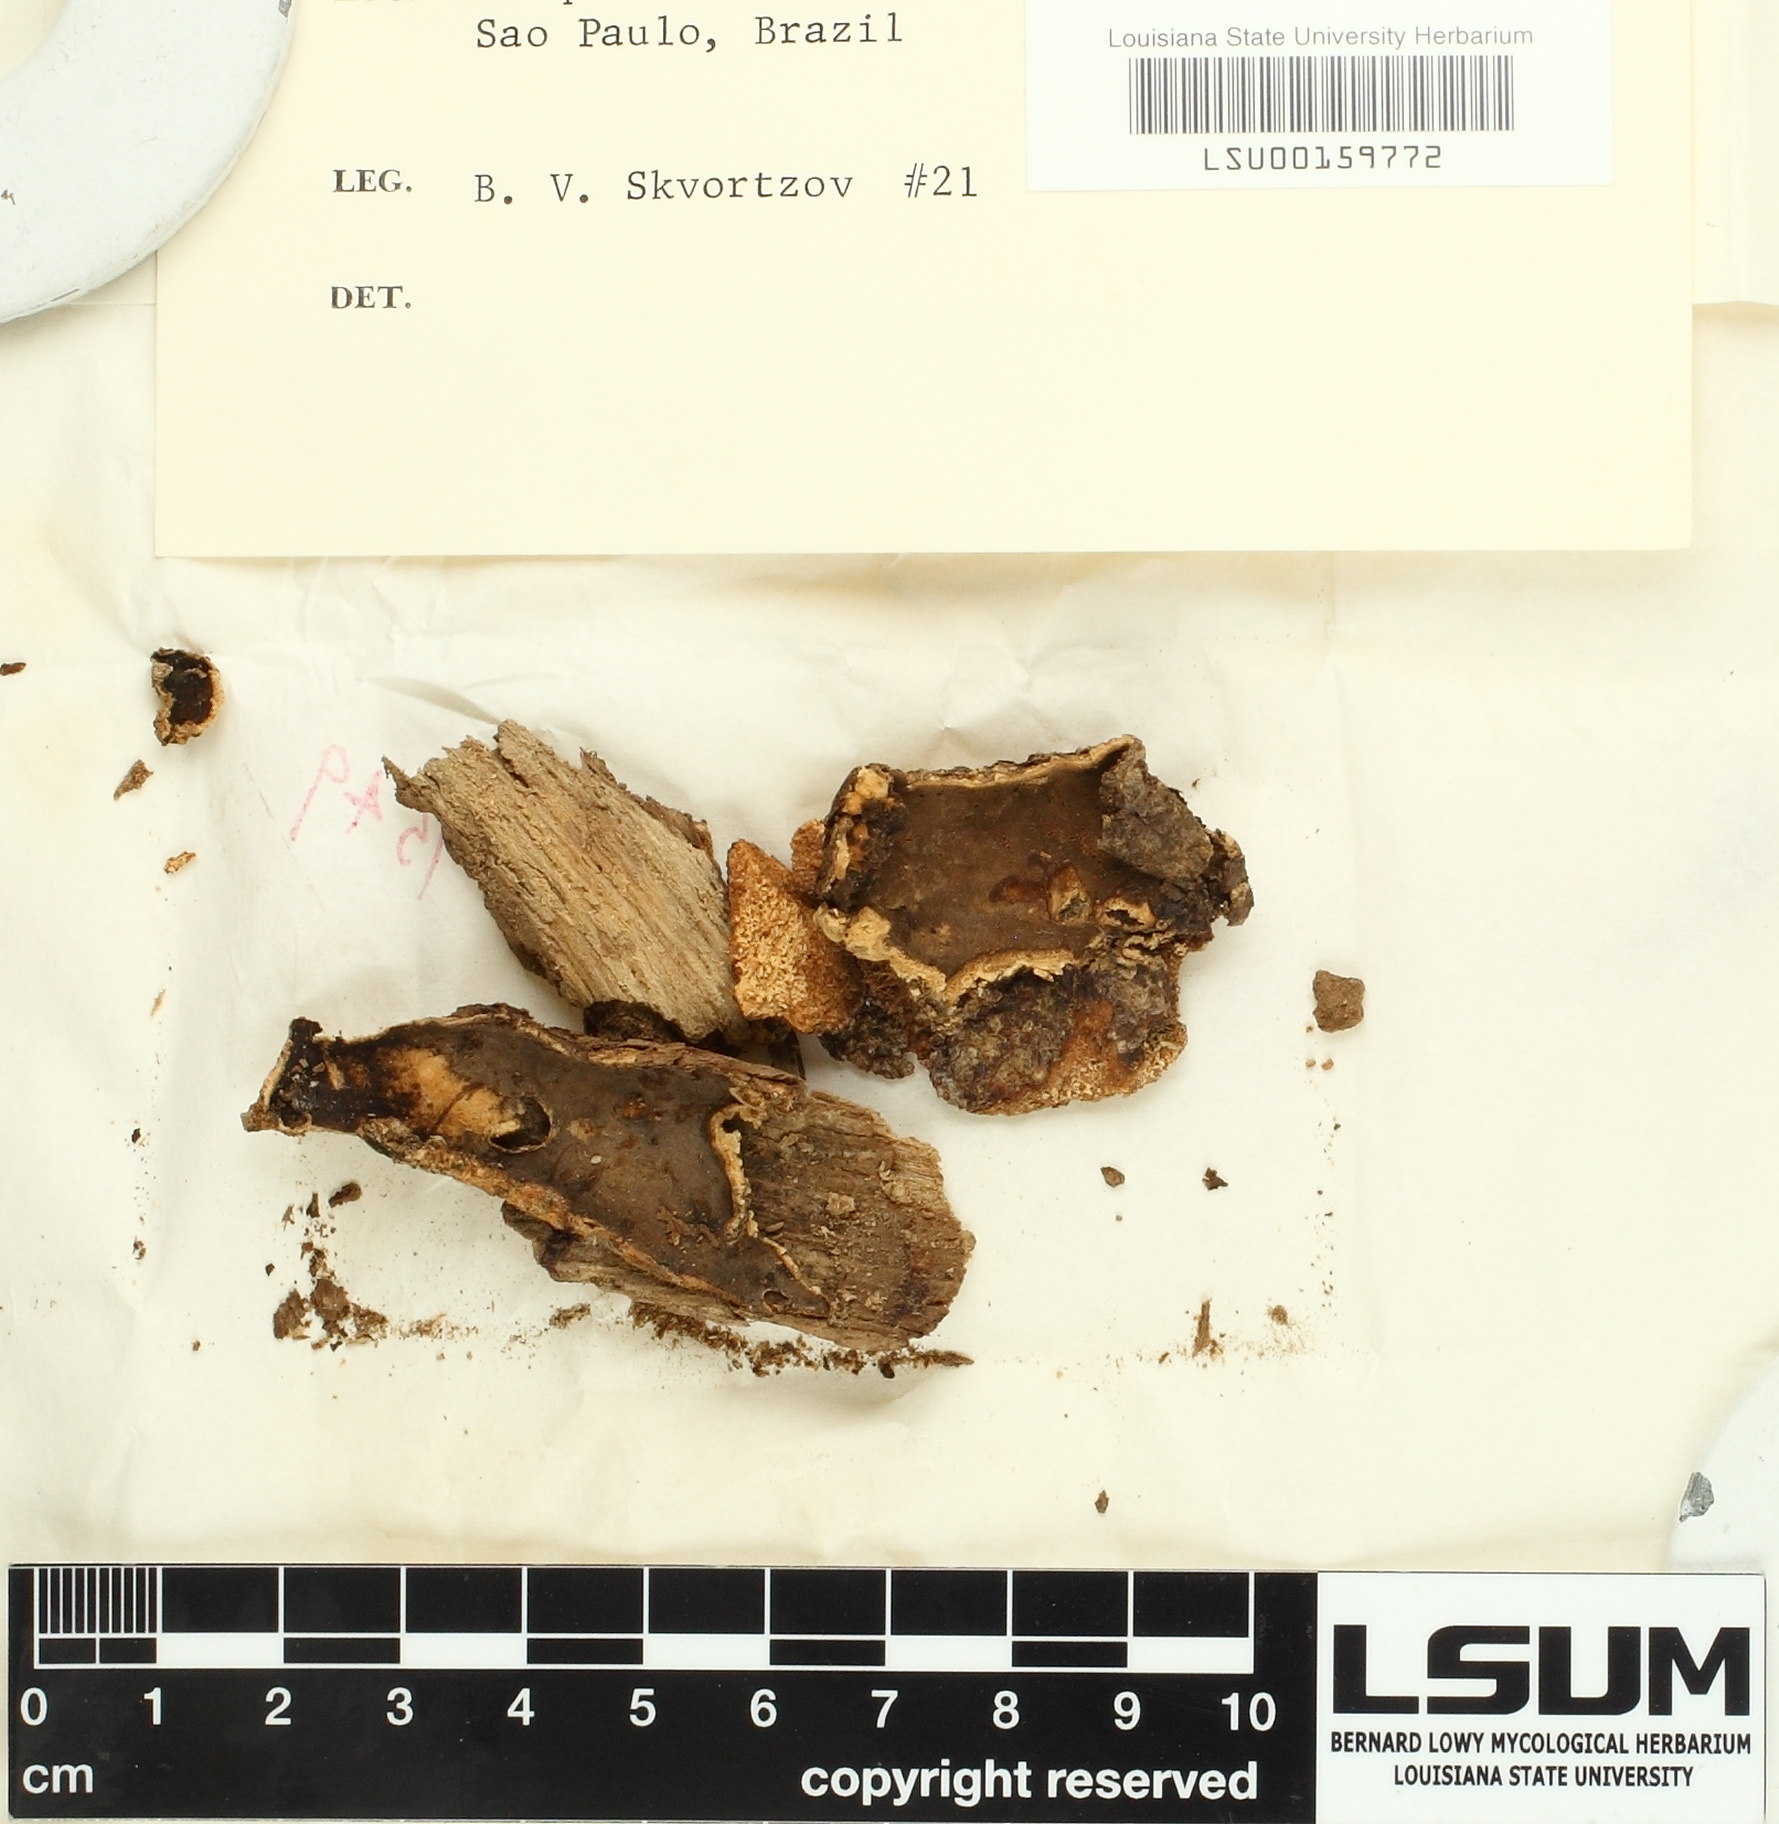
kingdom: Fungi
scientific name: Fungi
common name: Fungi
